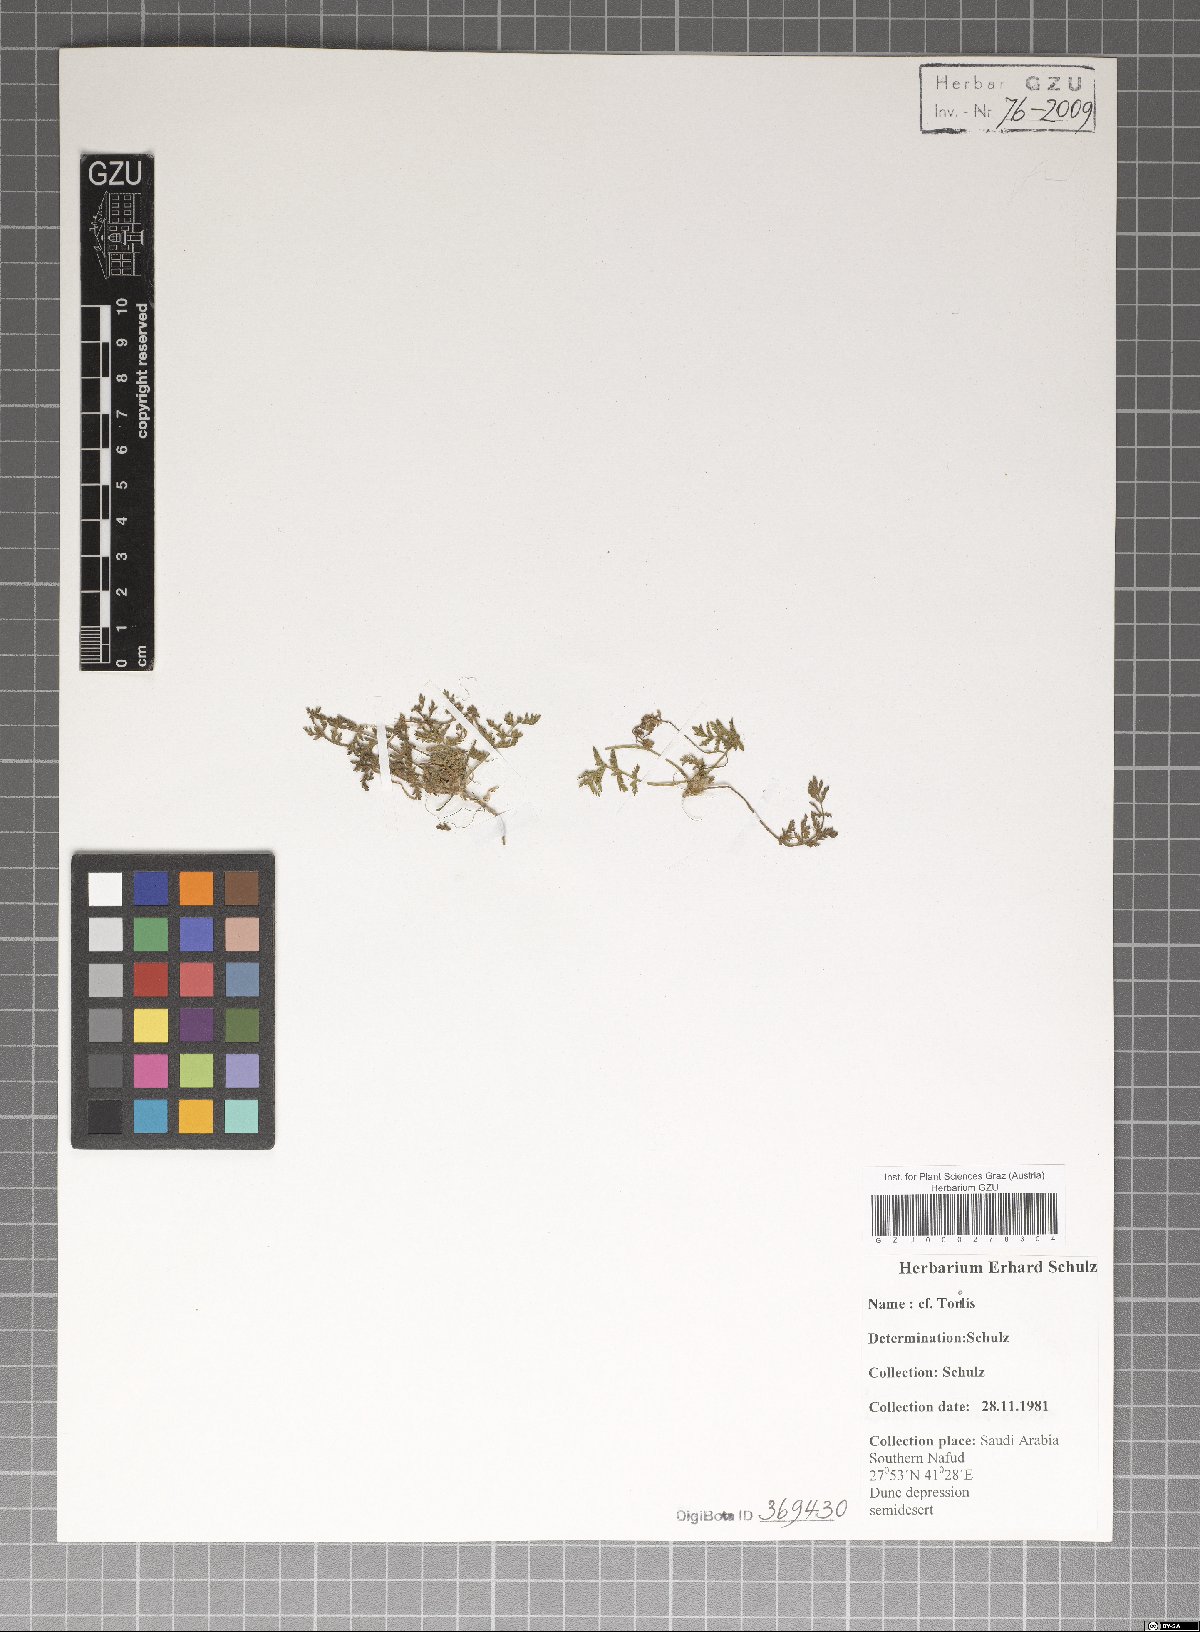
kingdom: Plantae
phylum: Tracheophyta
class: Magnoliopsida
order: Apiales
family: Apiaceae
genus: Torilis
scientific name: Torilis
